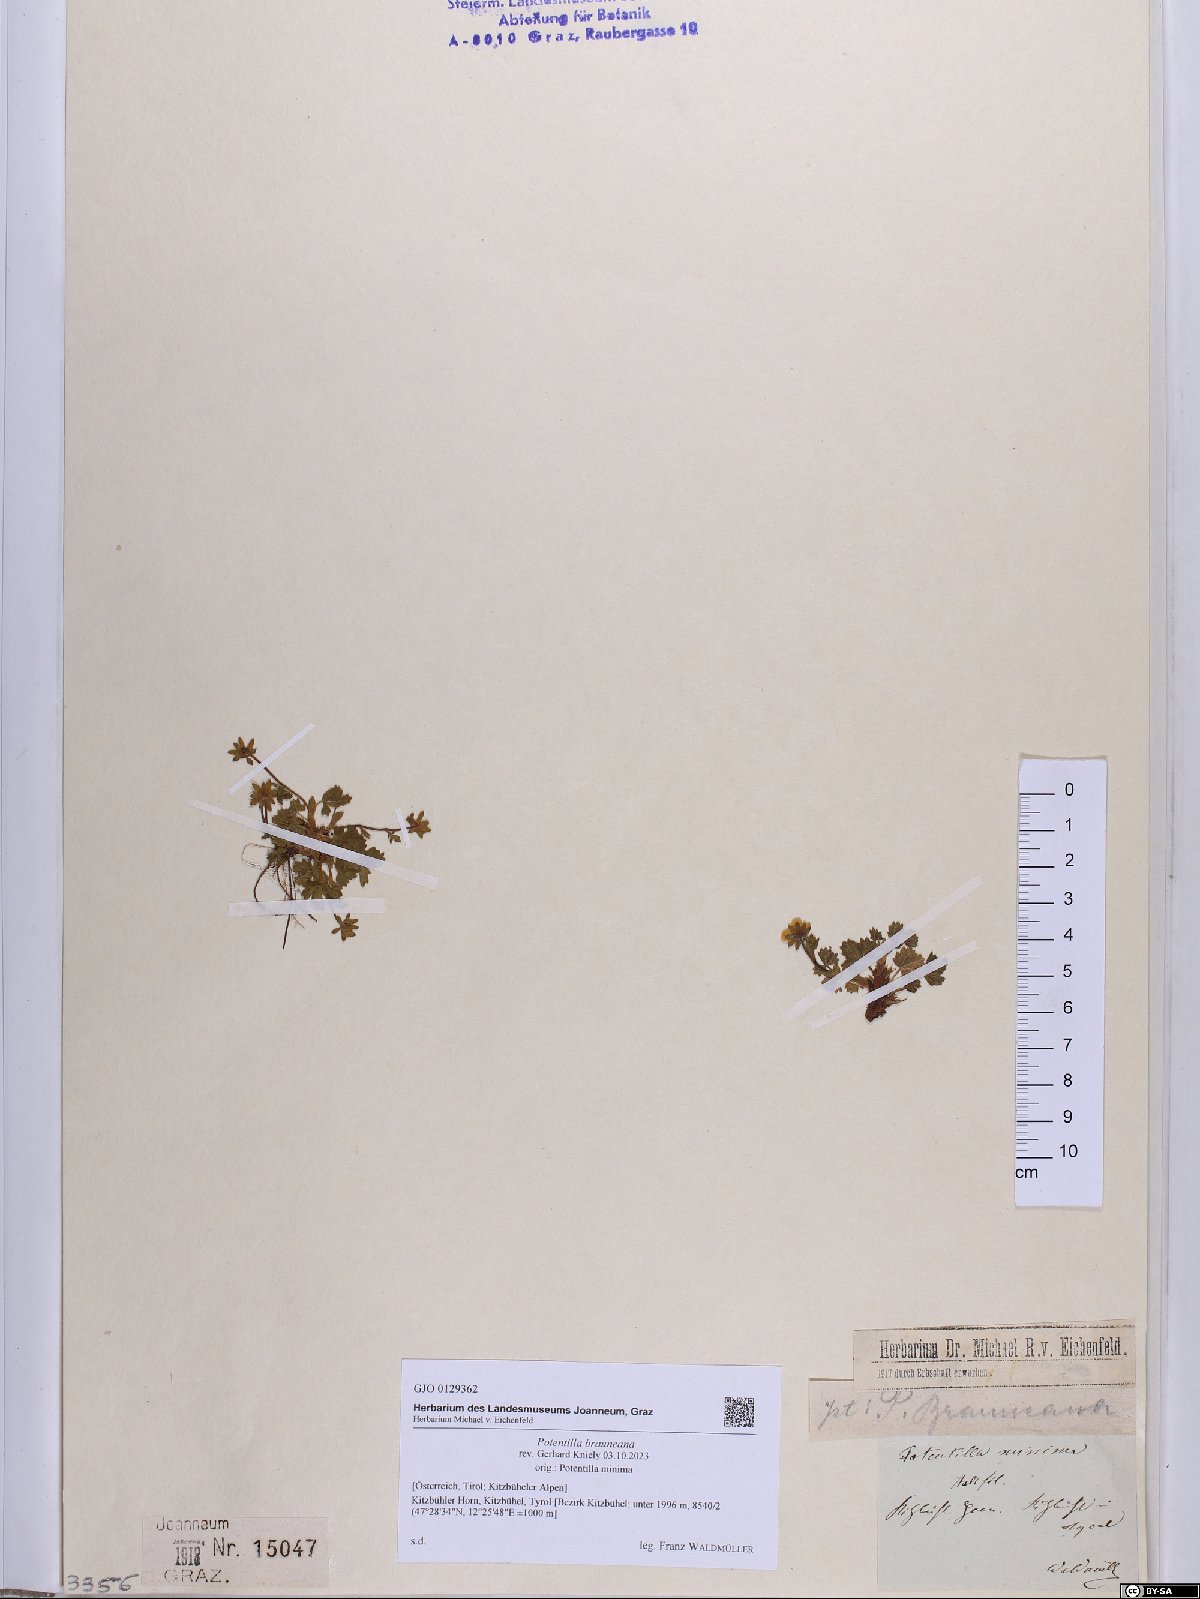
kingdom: Plantae
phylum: Tracheophyta
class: Magnoliopsida
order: Rosales
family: Rosaceae
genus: Potentilla
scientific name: Potentilla brauneana
